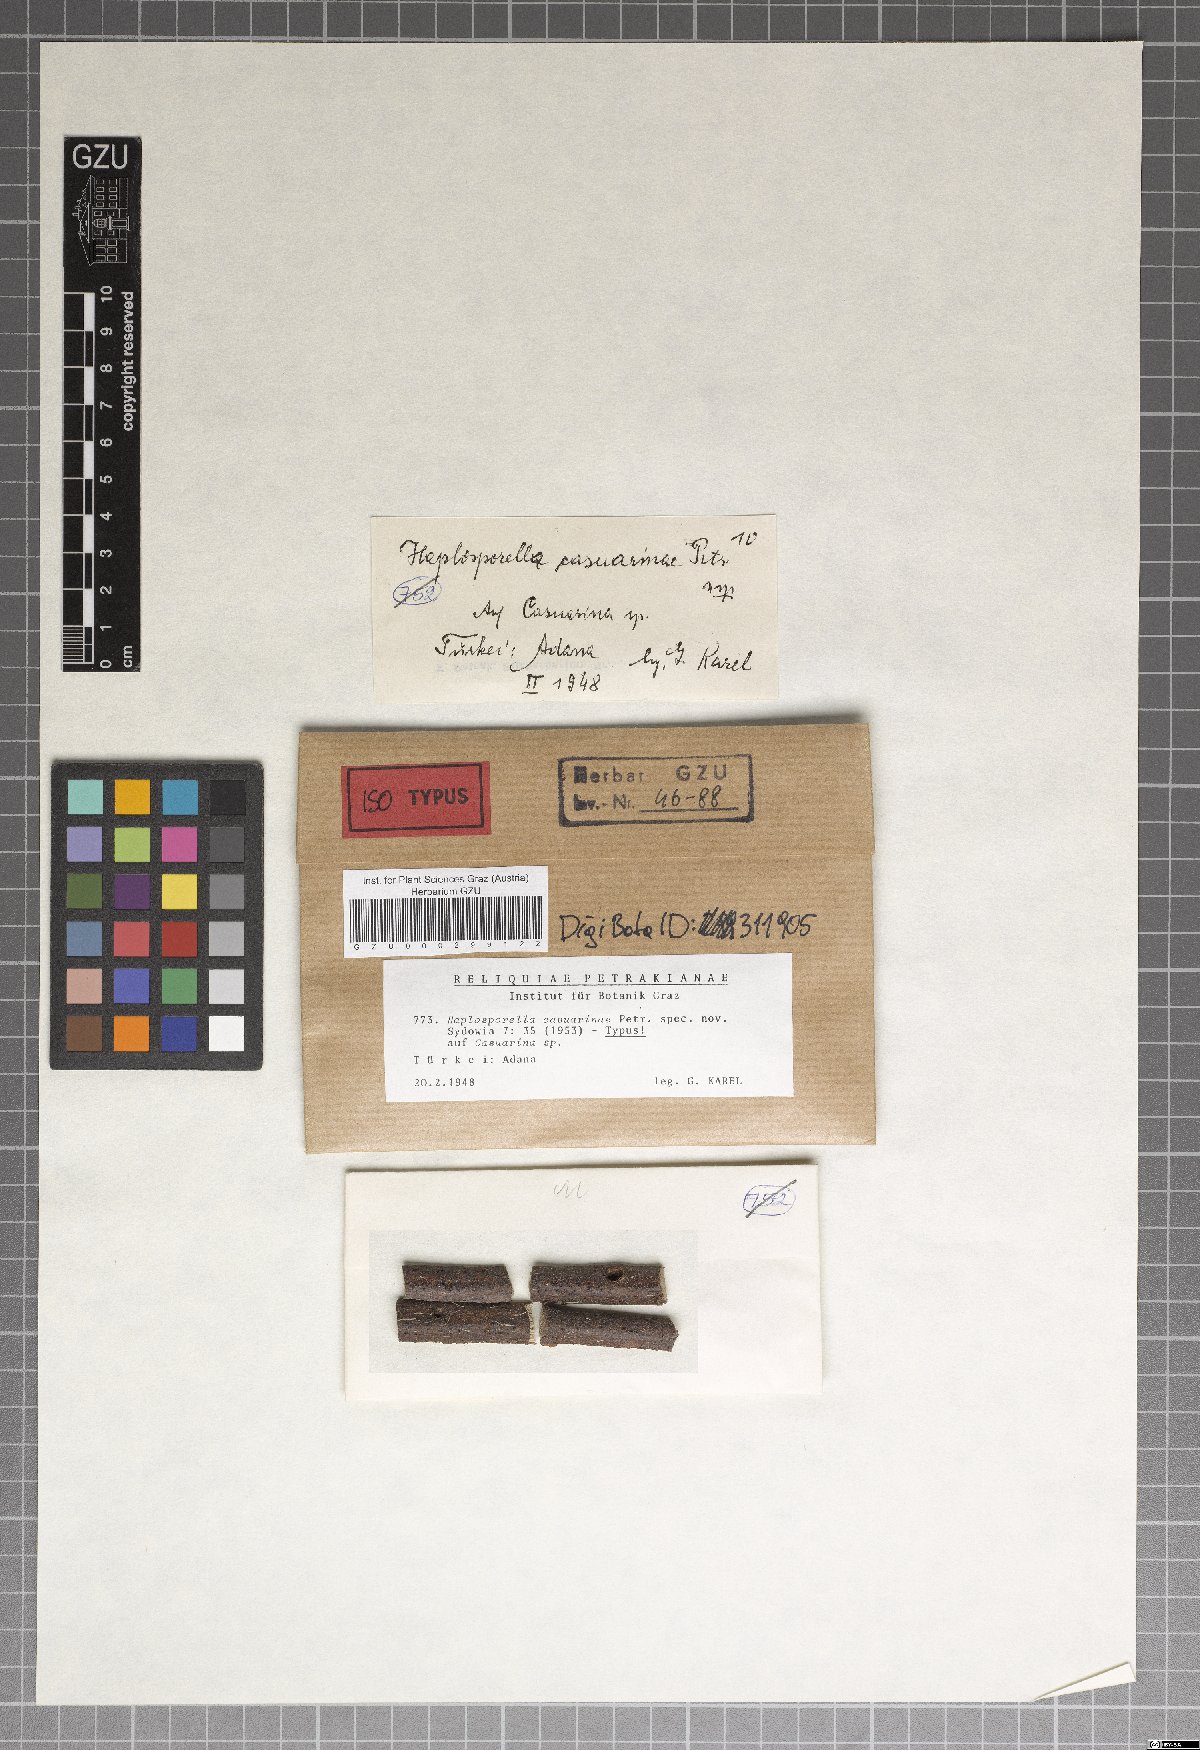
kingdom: Fungi
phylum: Ascomycota
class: Dothideomycetes
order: Botryosphaeriales
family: Aplosporellaceae
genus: Aplosporella
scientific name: Aplosporella casuarinae
